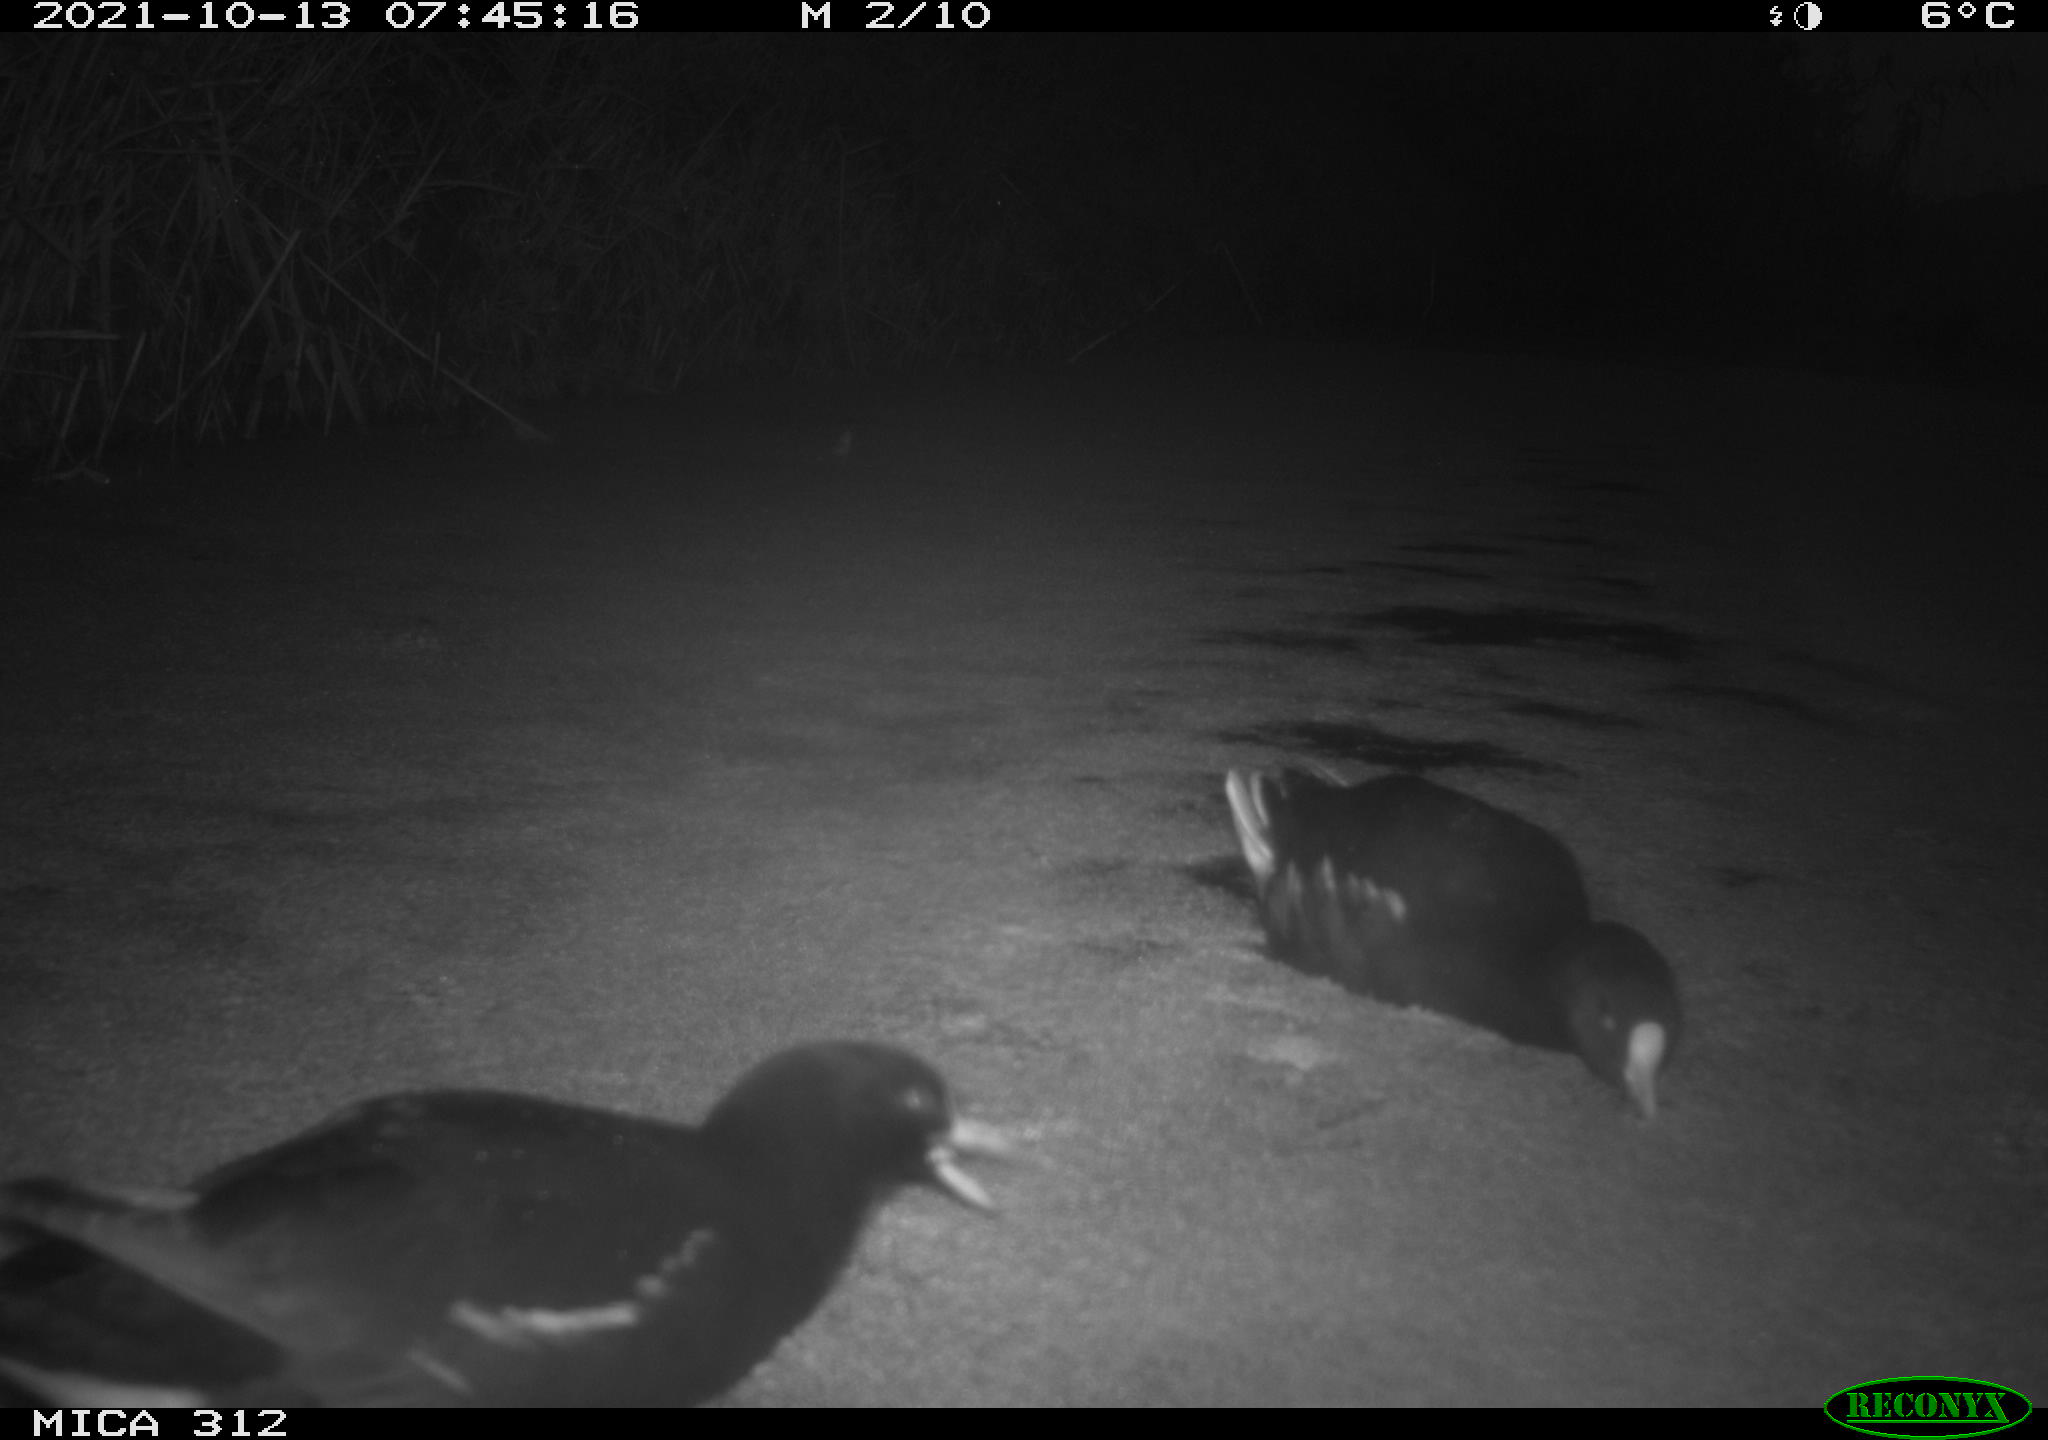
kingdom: Animalia
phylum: Chordata
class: Aves
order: Gruiformes
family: Rallidae
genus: Gallinula
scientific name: Gallinula chloropus
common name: Common moorhen
